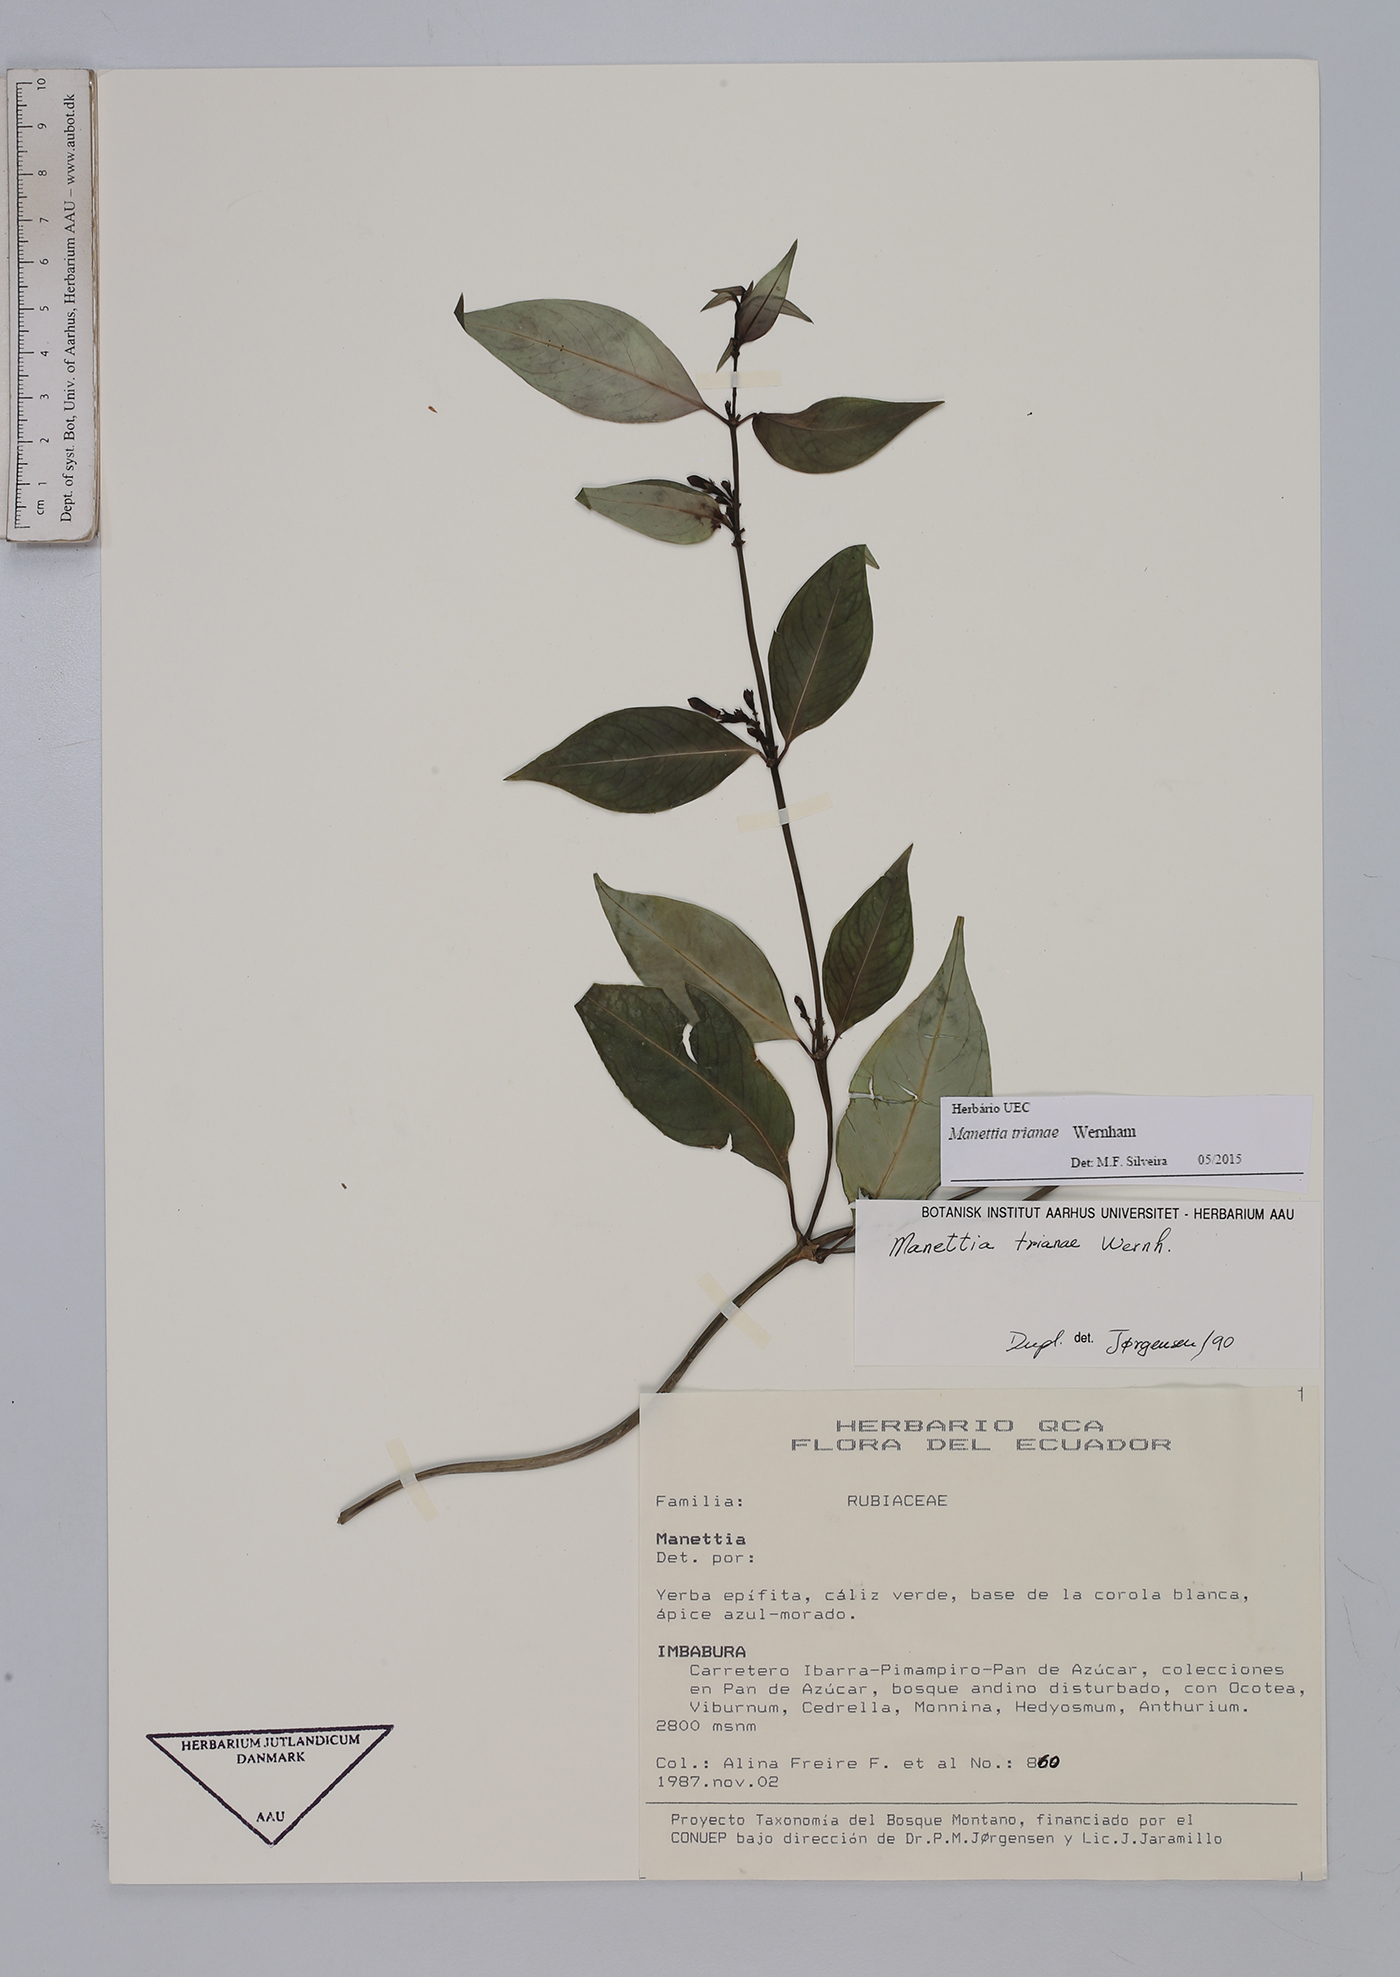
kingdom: Plantae
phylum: Tracheophyta
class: Magnoliopsida
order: Gentianales
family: Rubiaceae
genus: Manettia
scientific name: Manettia trianae
